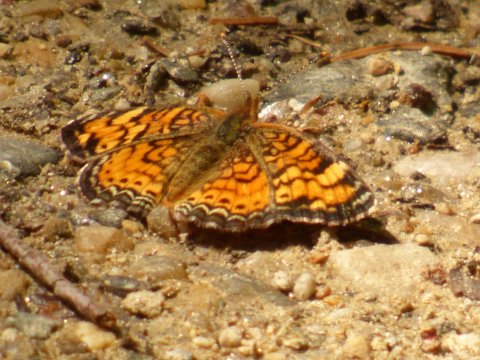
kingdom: Animalia
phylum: Arthropoda
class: Insecta
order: Lepidoptera
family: Nymphalidae
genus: Phyciodes
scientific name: Phyciodes tharos
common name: Pearl Crescent
